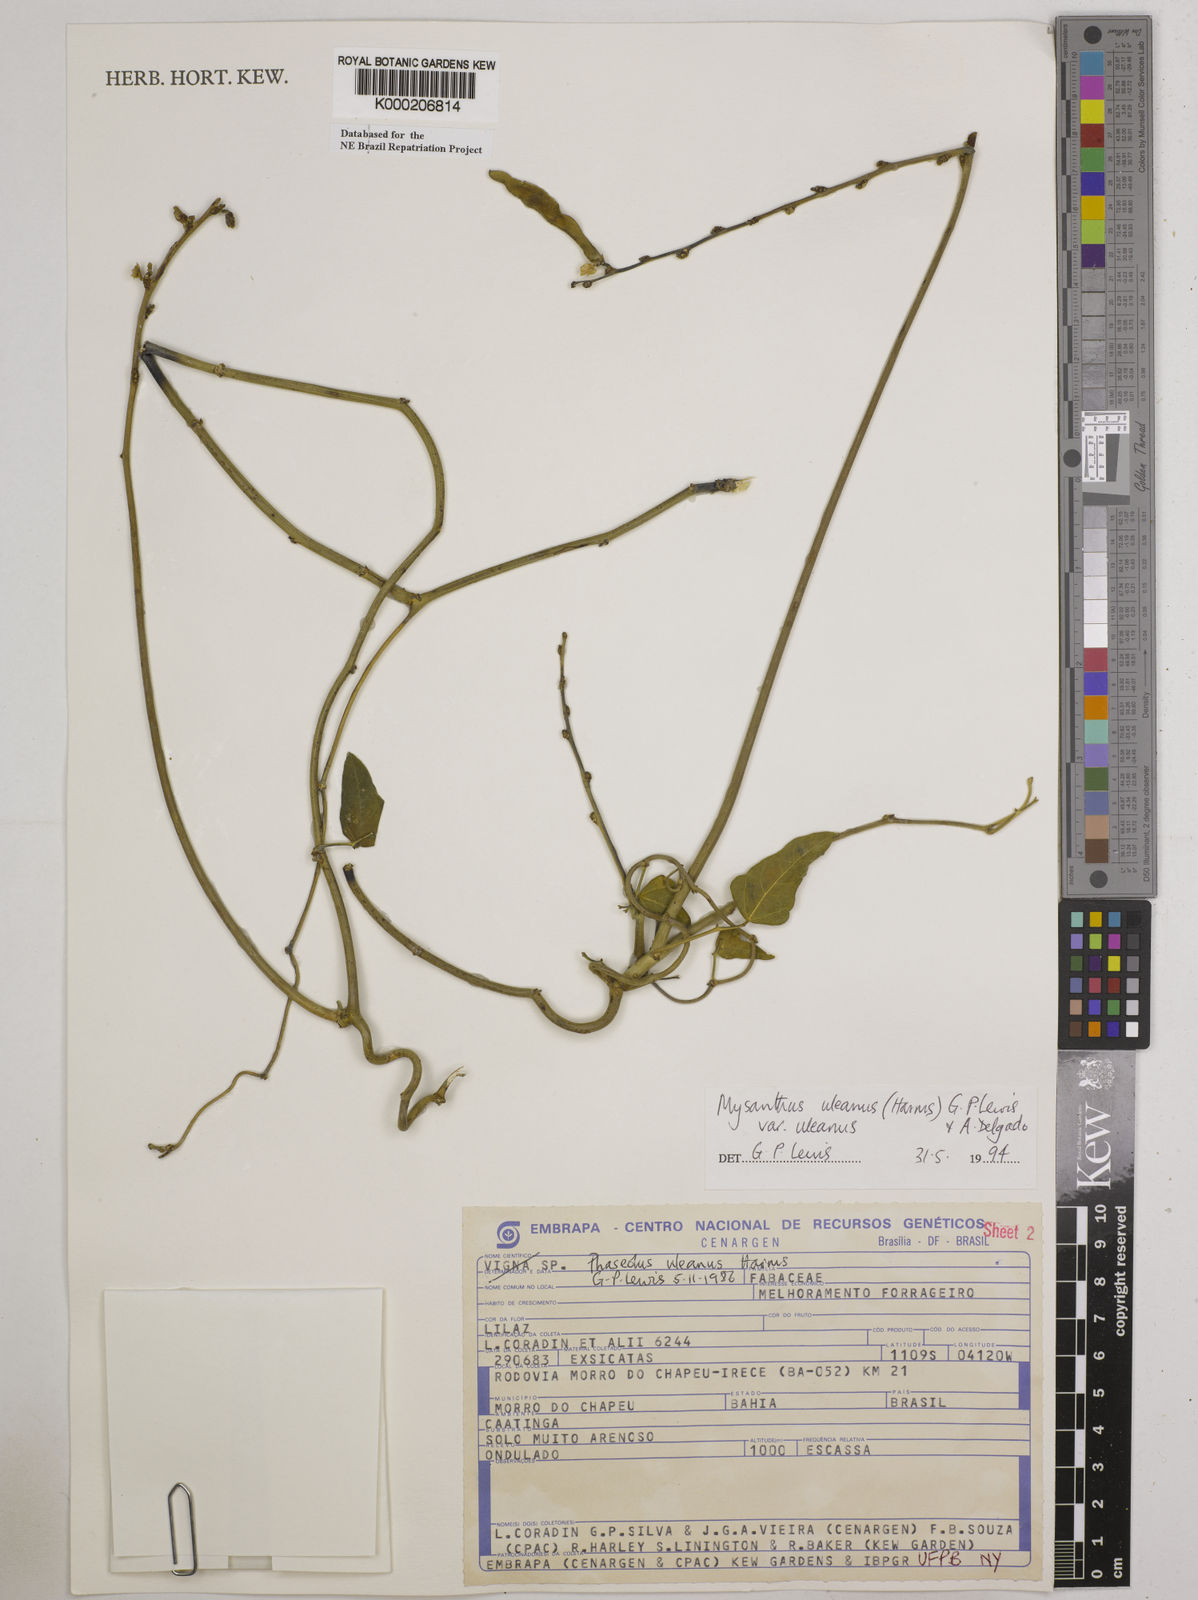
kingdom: Plantae
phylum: Tracheophyta
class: Magnoliopsida
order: Fabales
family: Fabaceae
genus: Mysanthus
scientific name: Mysanthus uleanus
